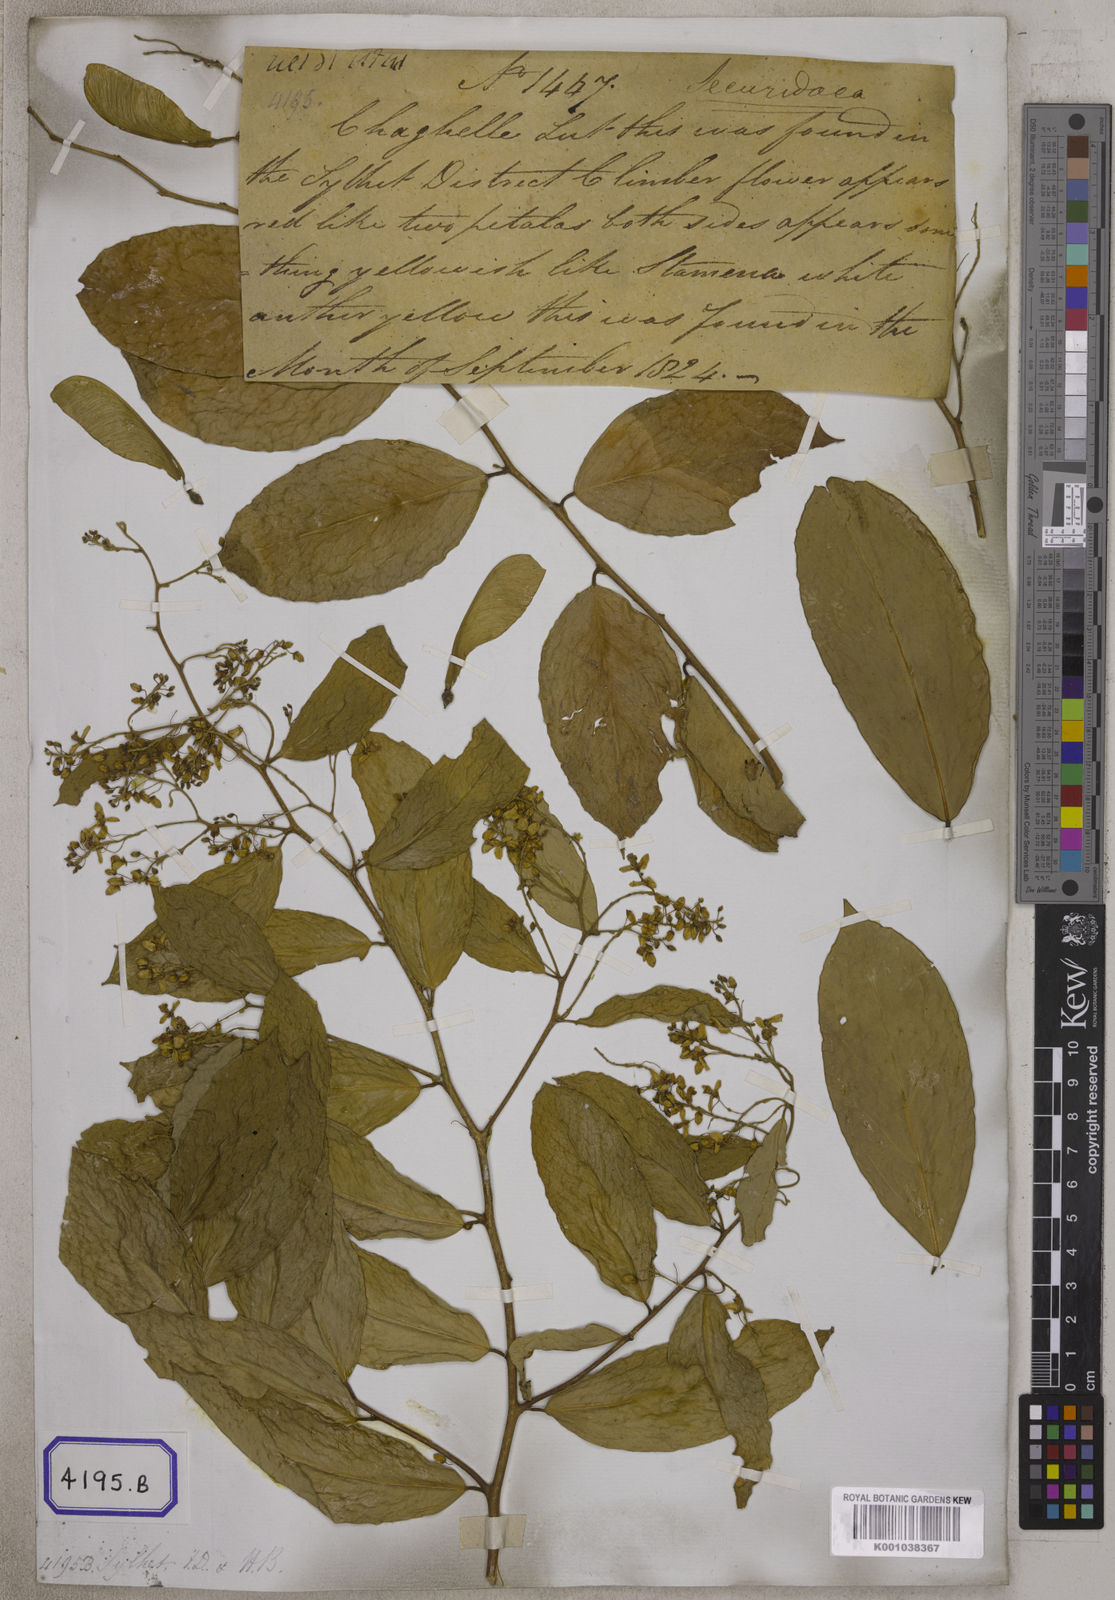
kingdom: Plantae
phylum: Tracheophyta
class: Magnoliopsida
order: Fabales
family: Polygalaceae
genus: Securidaca
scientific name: Securidaca
